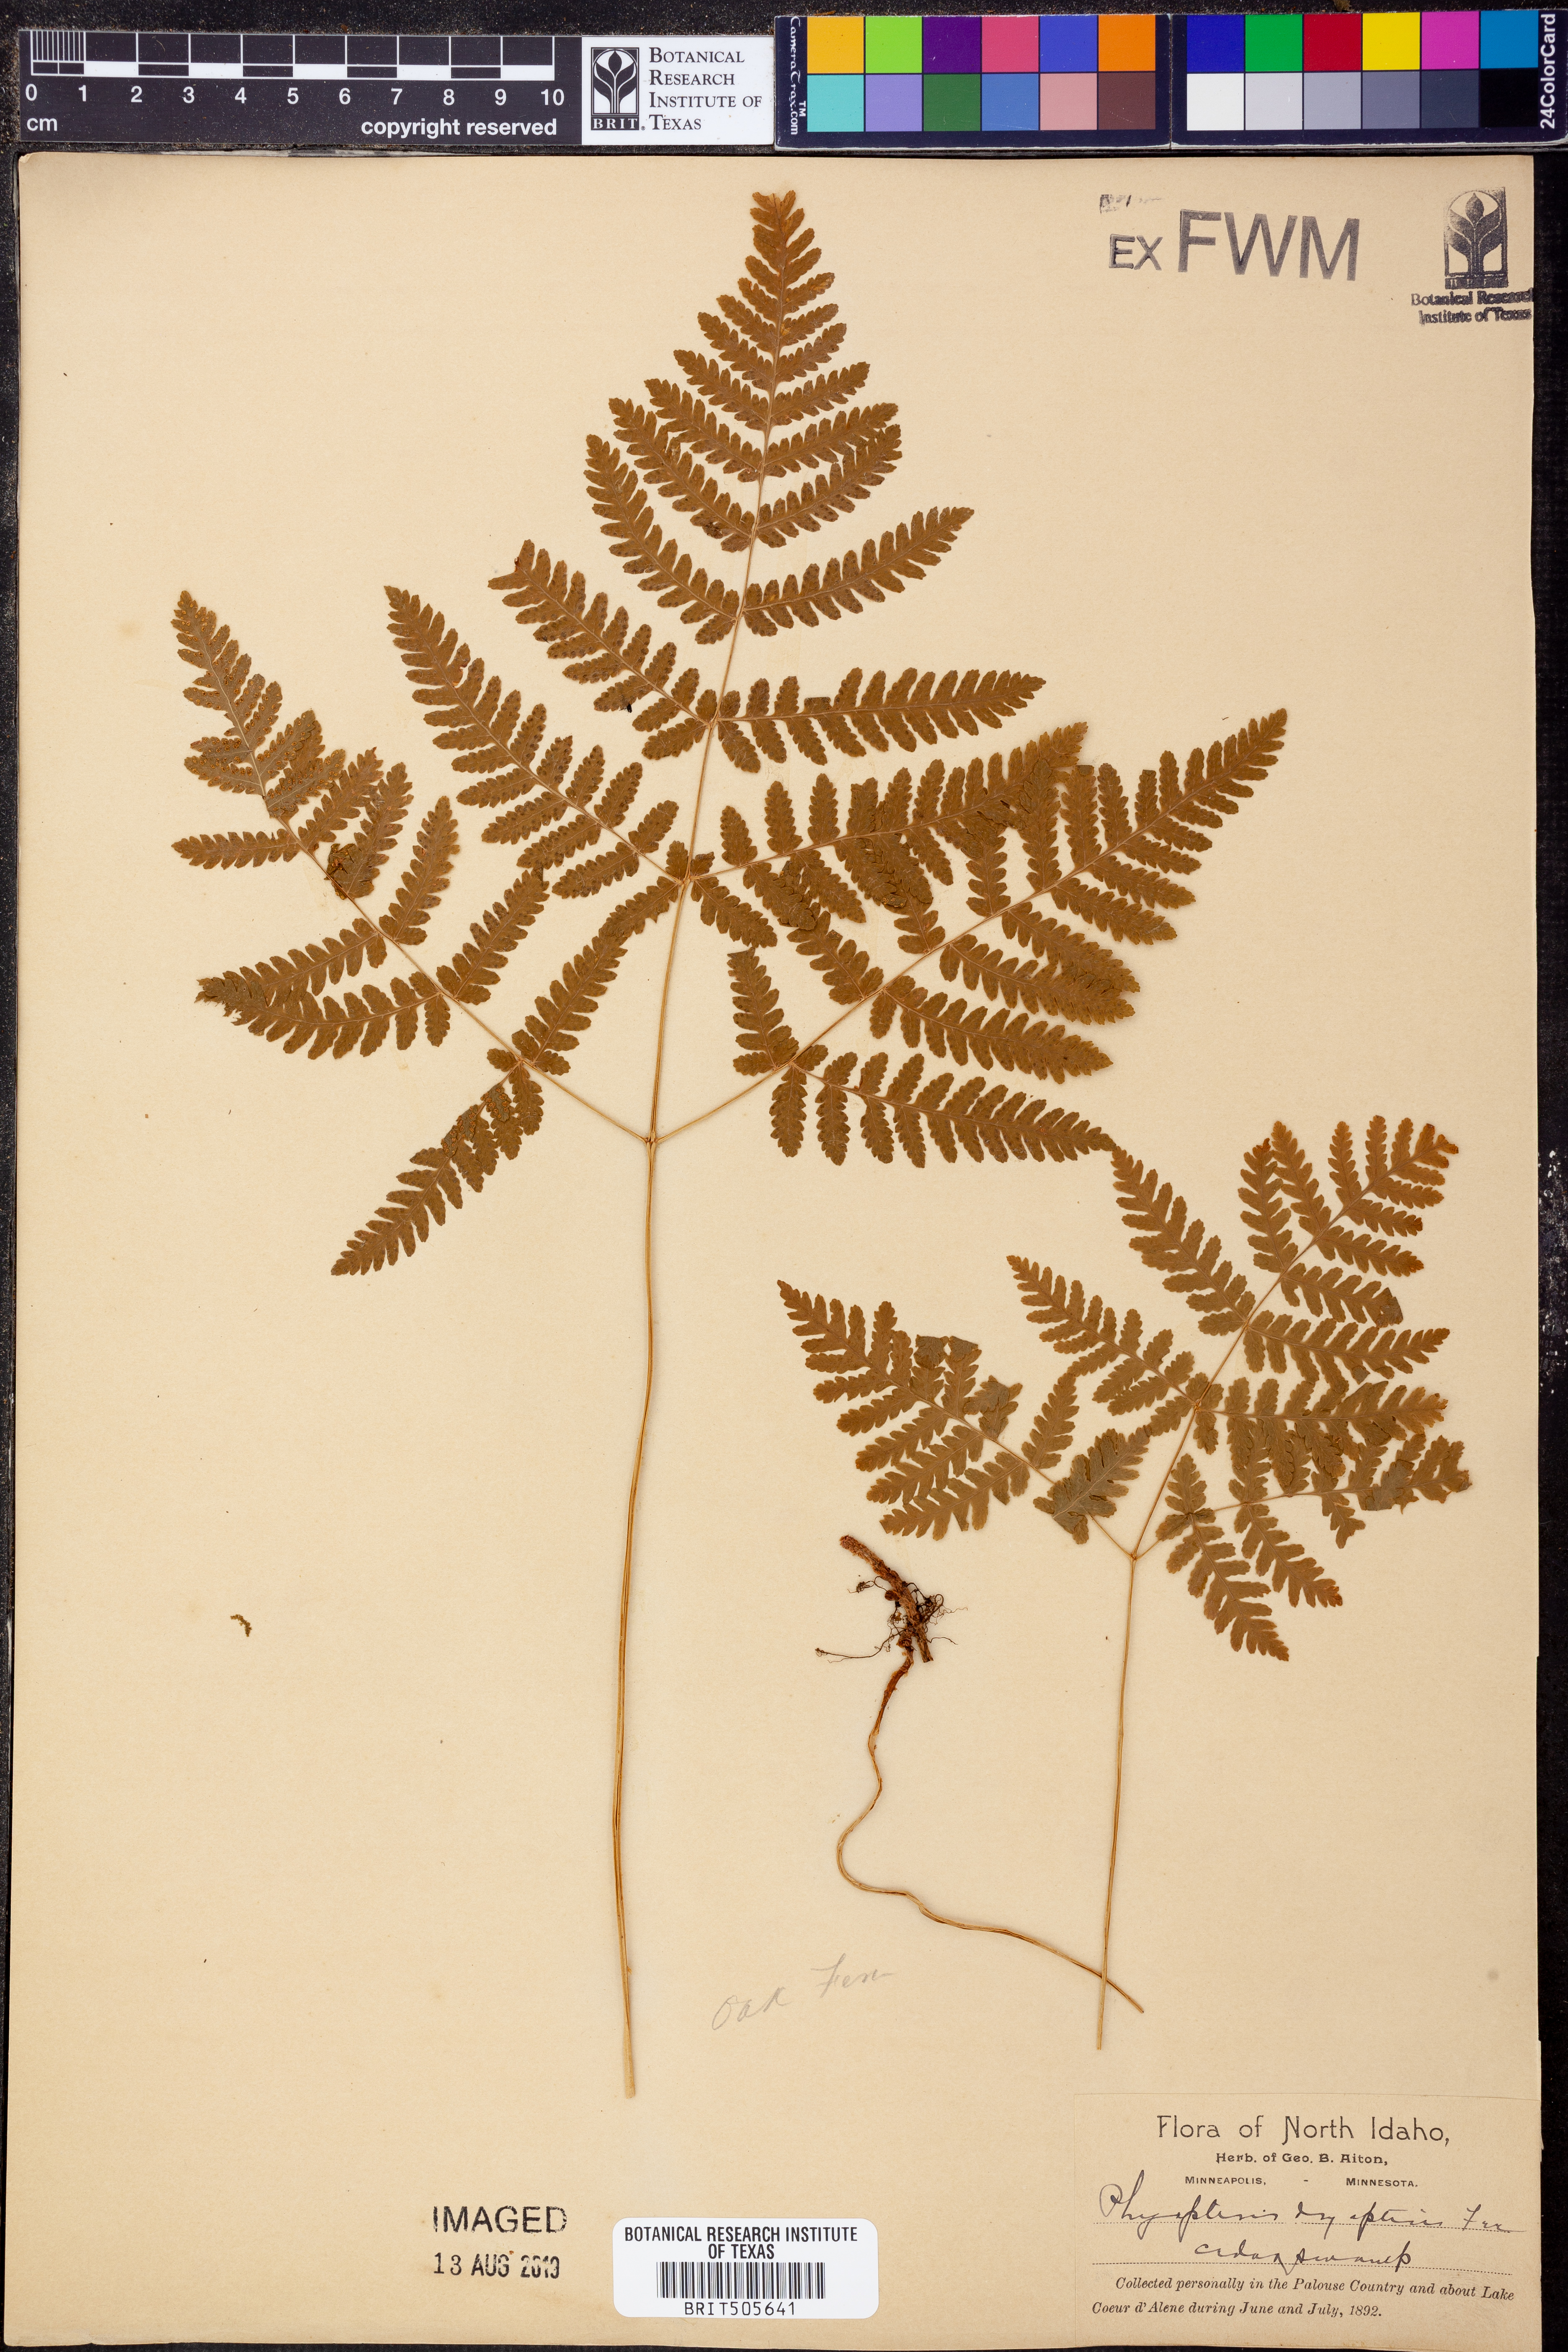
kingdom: Plantae
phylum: Tracheophyta
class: Polypodiopsida
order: Polypodiales
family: Cystopteridaceae
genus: Gymnocarpium
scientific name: Gymnocarpium dryopteris
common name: Oak fern
